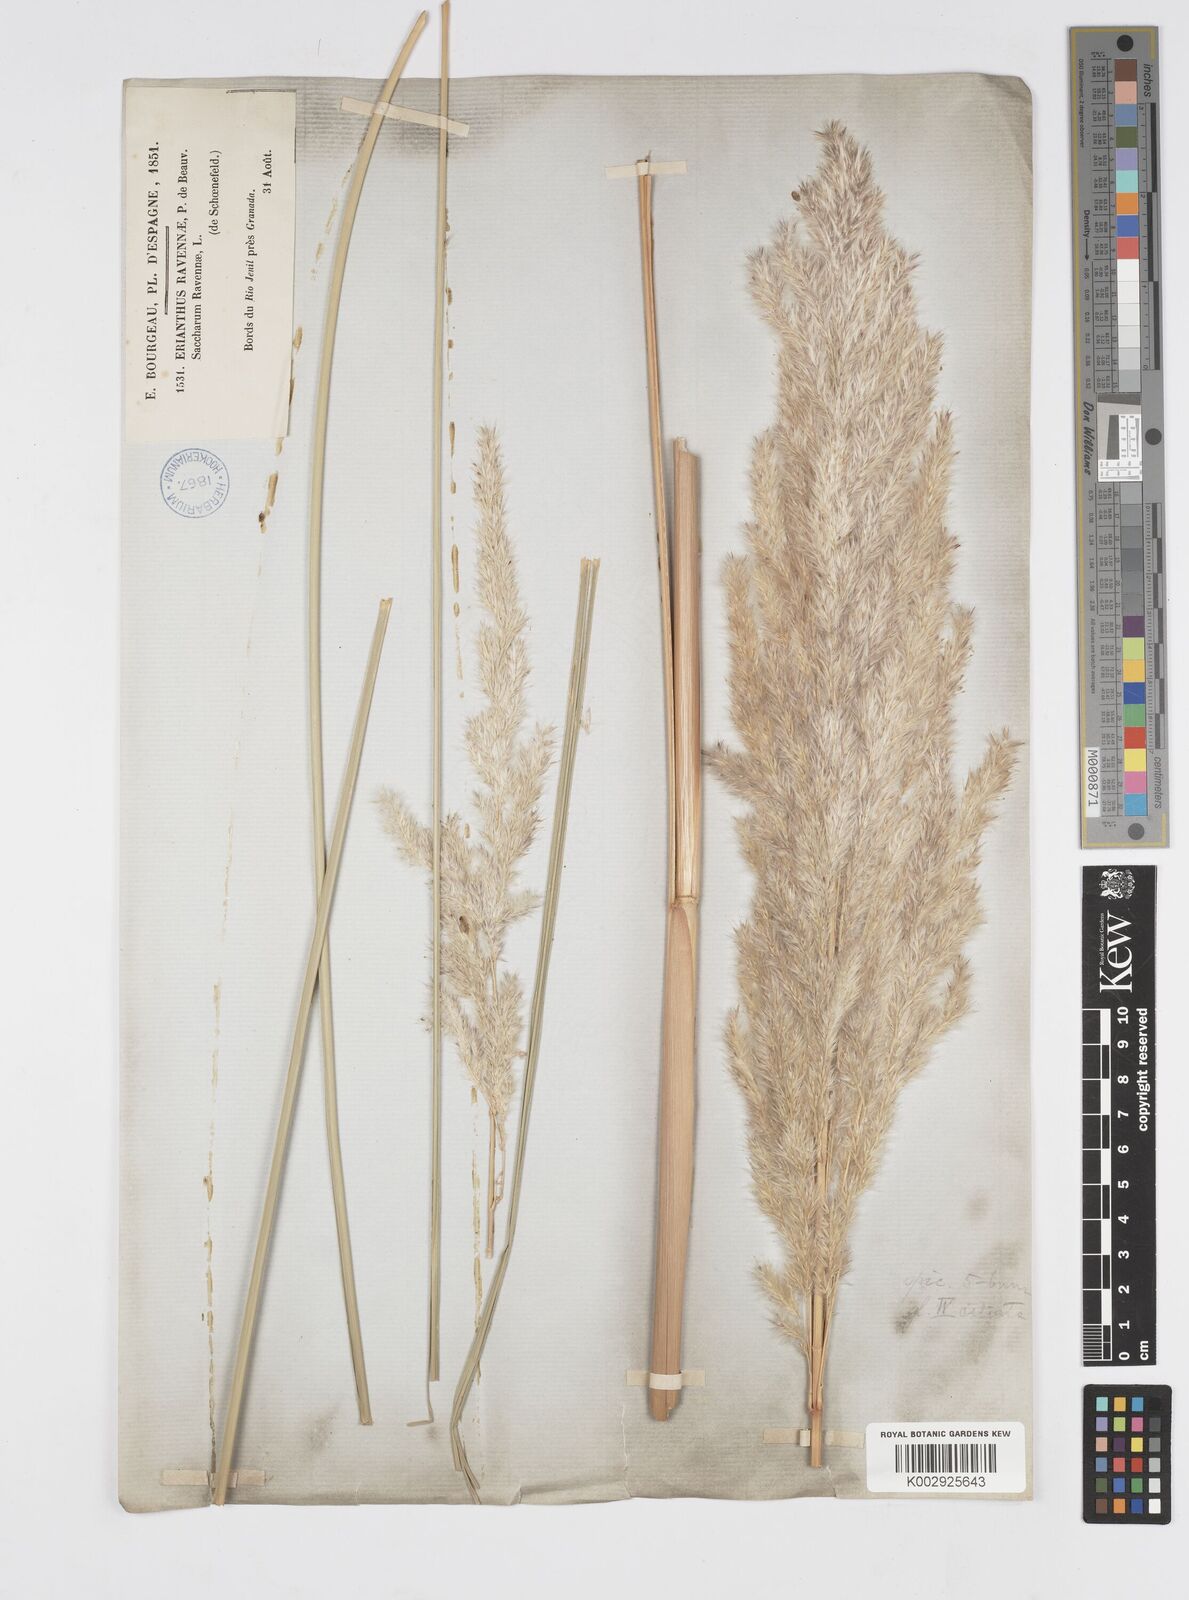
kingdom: Plantae
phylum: Tracheophyta
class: Liliopsida
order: Poales
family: Poaceae
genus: Tripidium
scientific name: Tripidium ravennae
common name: Ravenna grass
